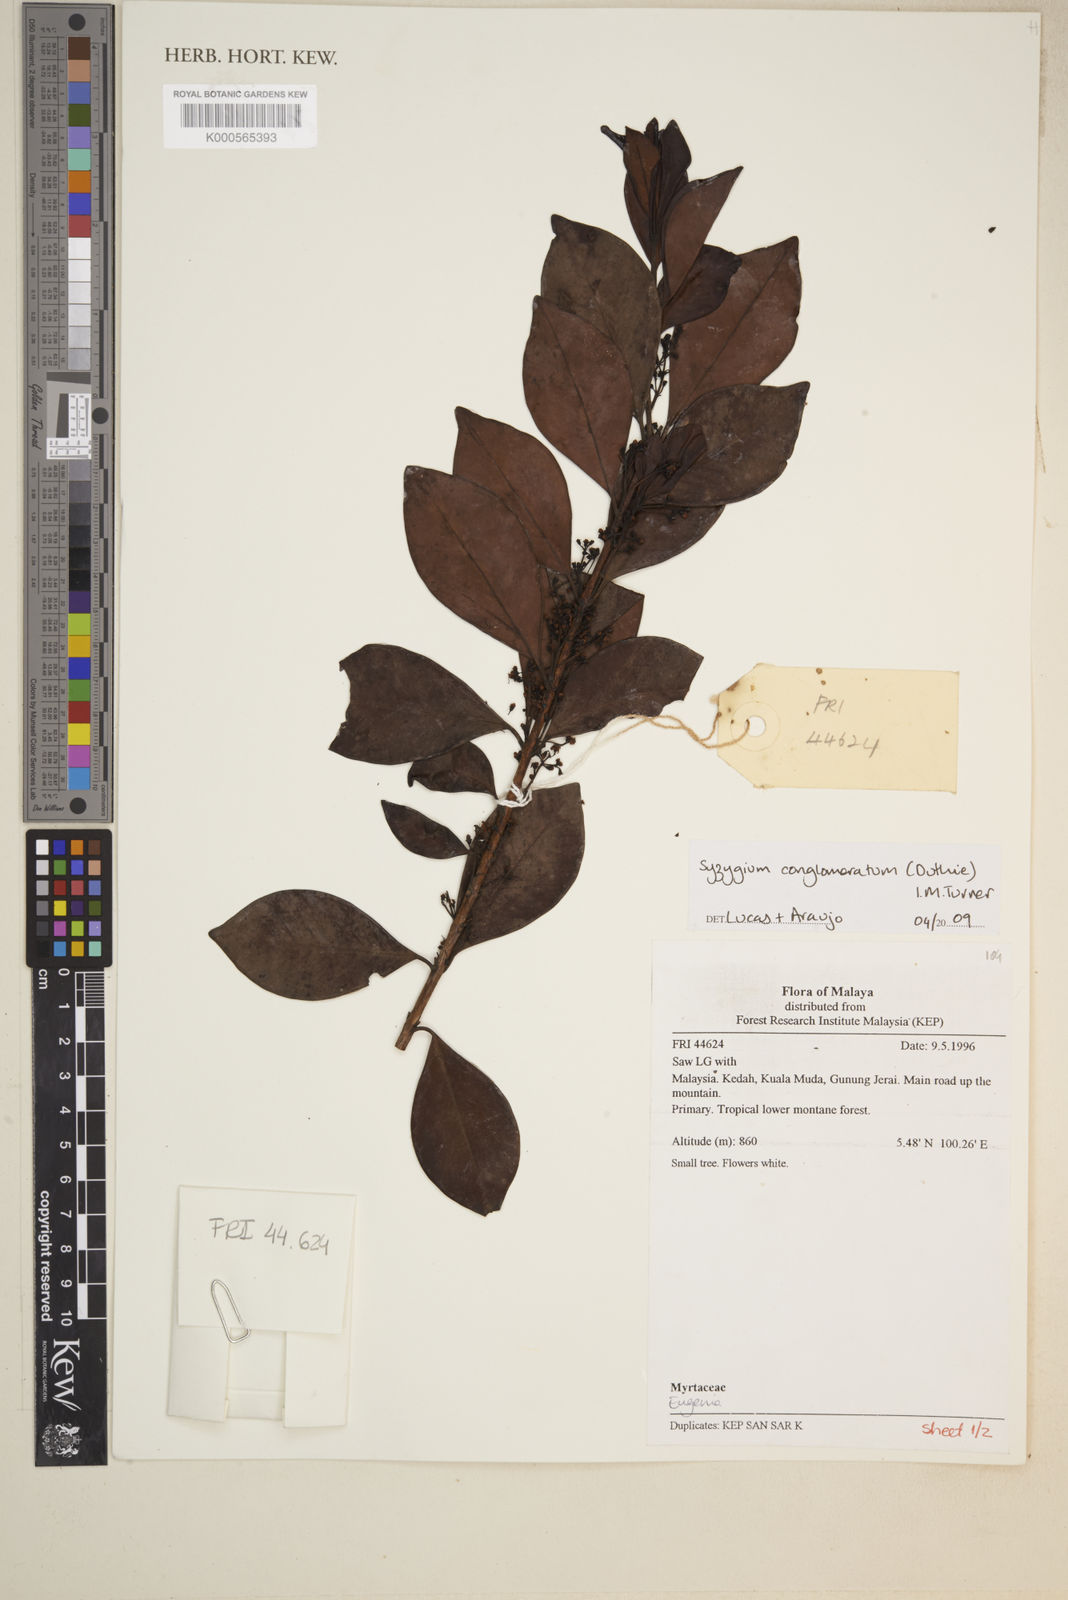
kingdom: Plantae
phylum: Tracheophyta
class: Magnoliopsida
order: Myrtales
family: Myrtaceae
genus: Syzygium
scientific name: Syzygium conglomeratum
